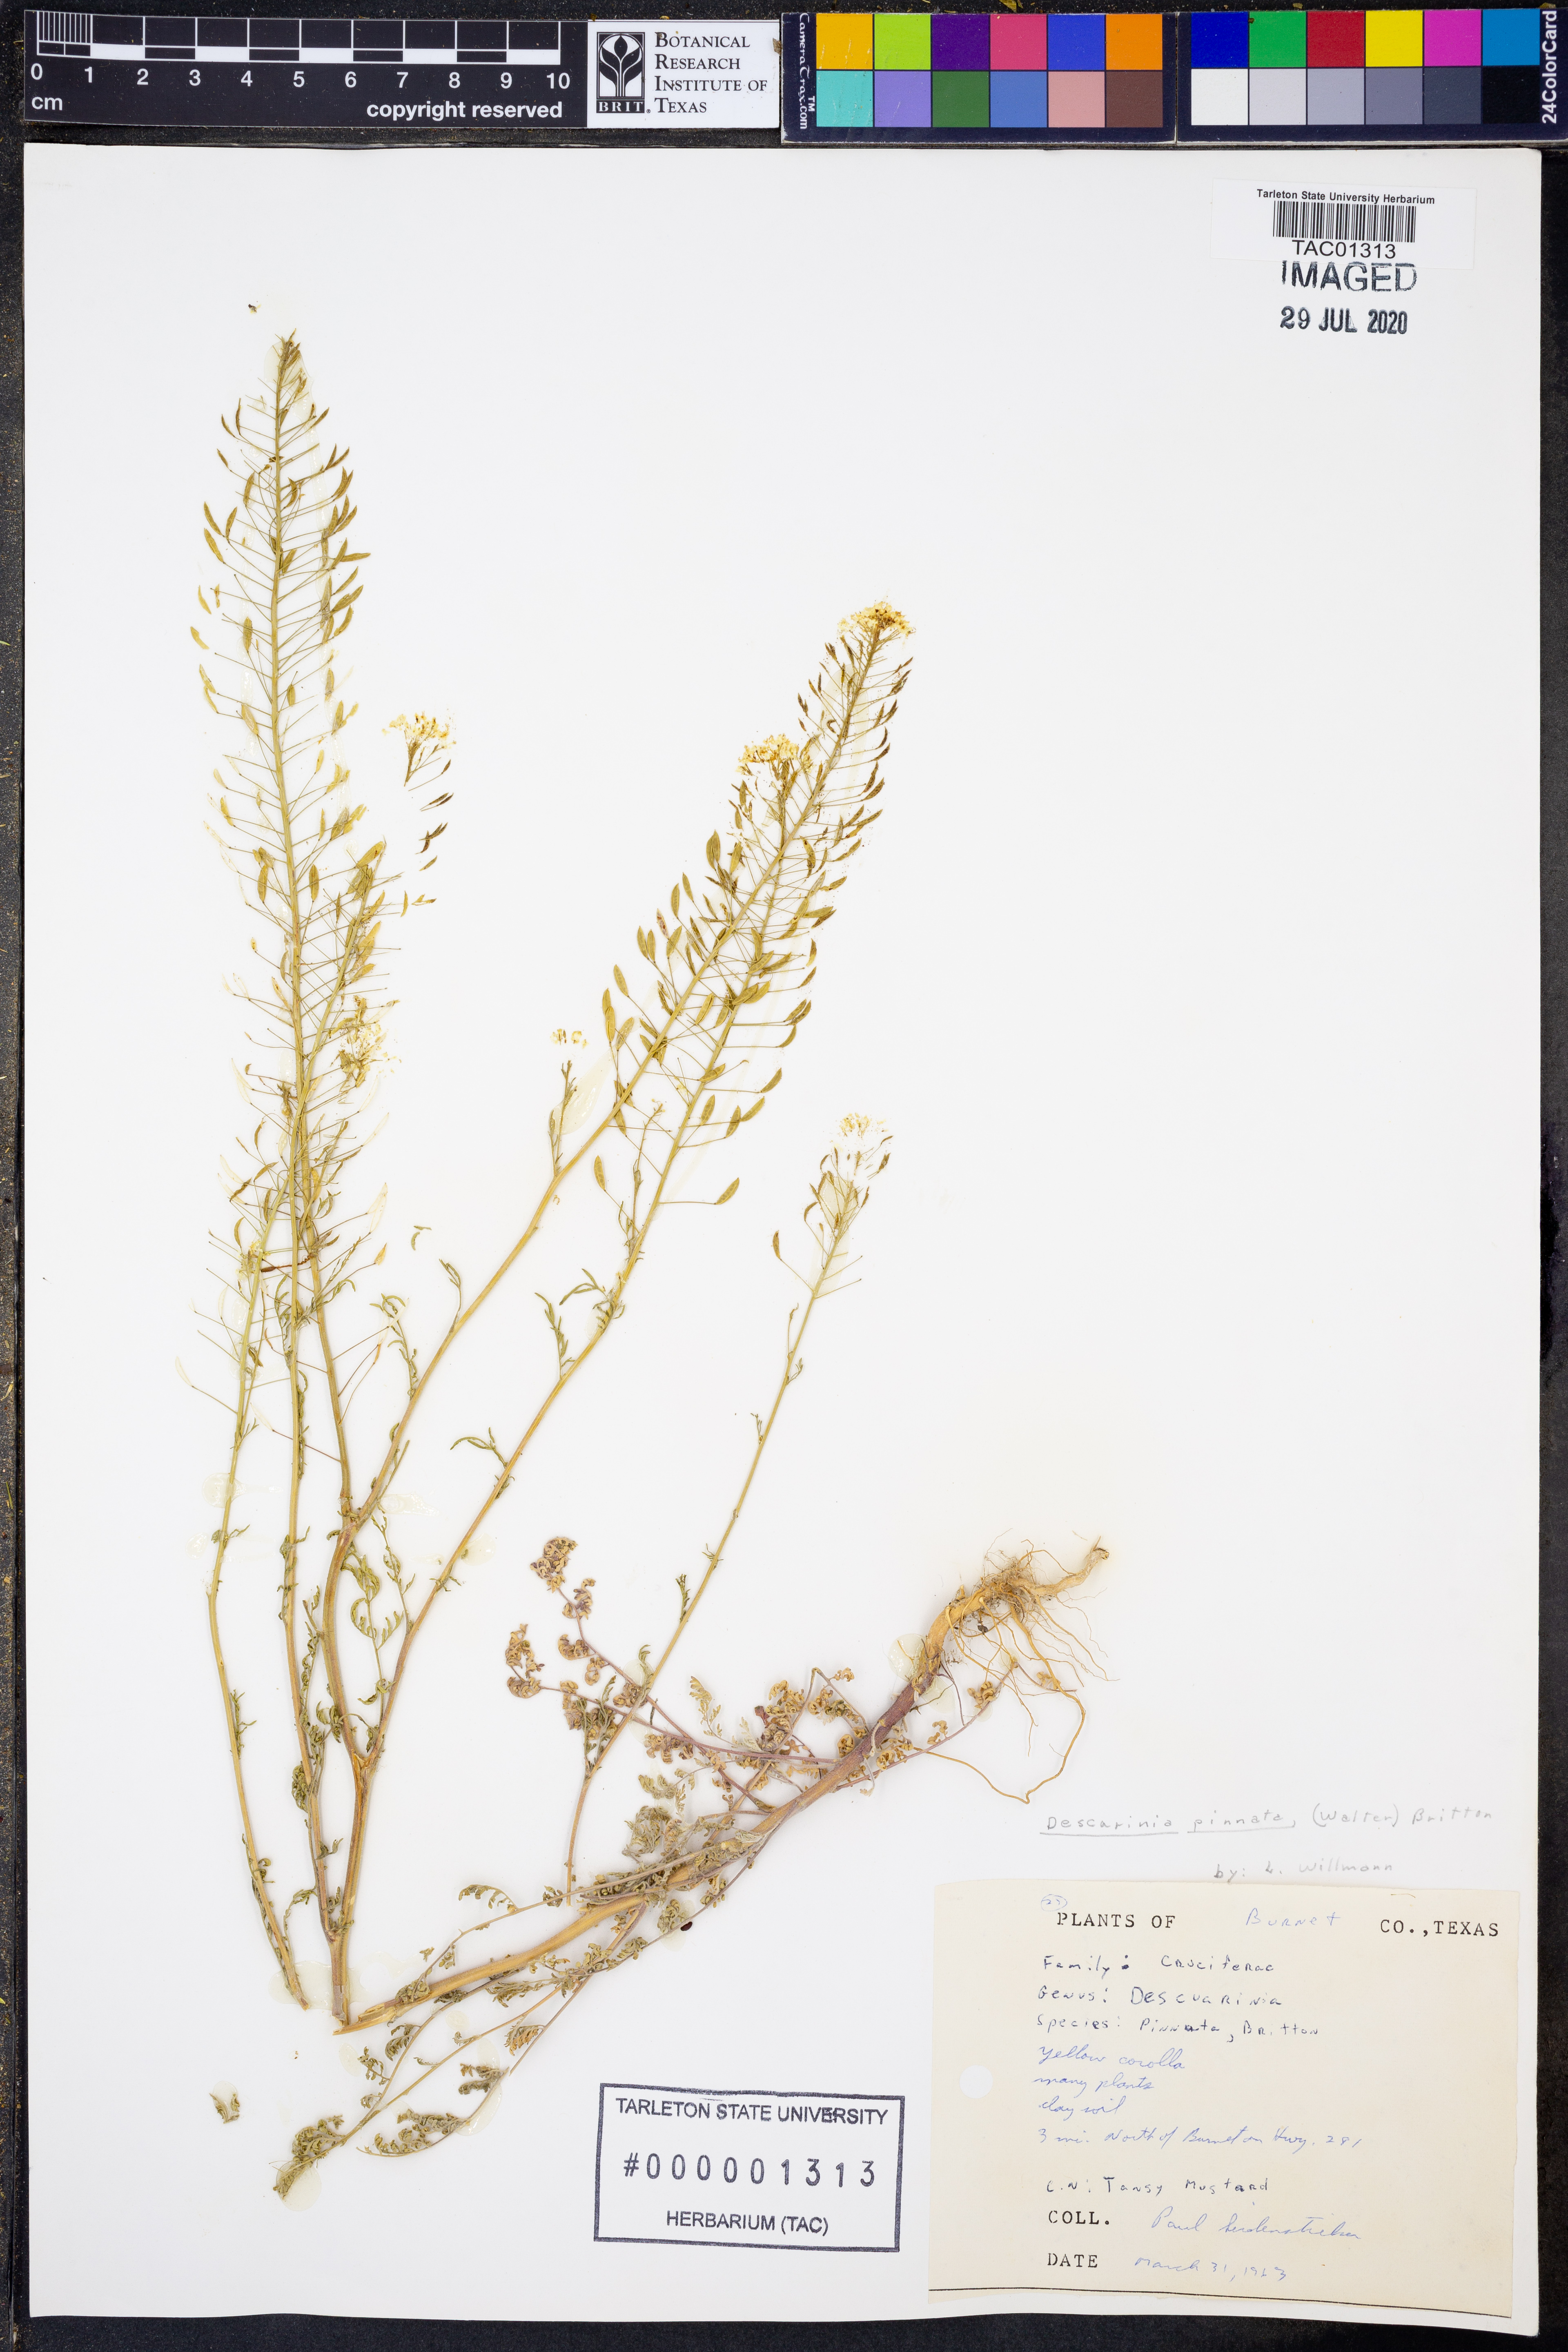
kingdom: Plantae
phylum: Tracheophyta
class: Magnoliopsida
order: Brassicales
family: Brassicaceae
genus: Descurainia
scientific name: Descurainia pinnata
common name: Western tansy mustard
